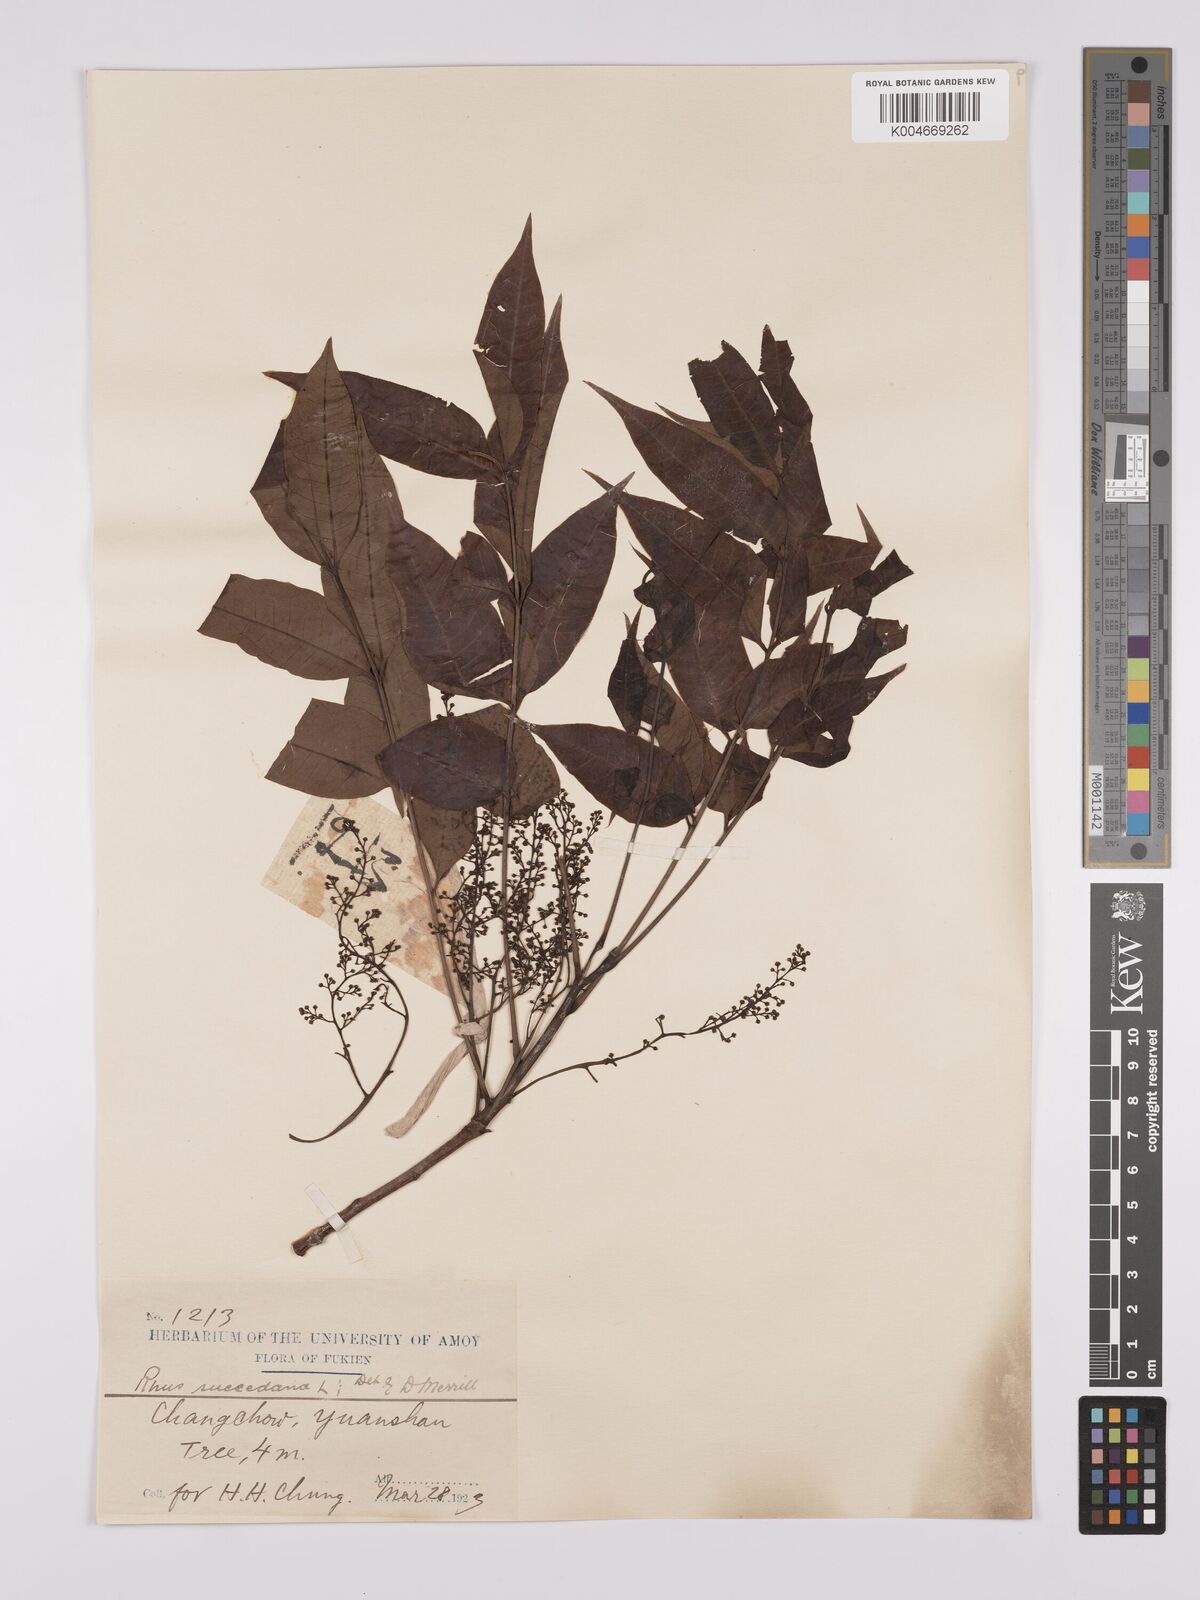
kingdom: Plantae
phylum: Tracheophyta
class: Magnoliopsida
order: Sapindales
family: Anacardiaceae
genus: Toxicodendron
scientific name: Toxicodendron succedaneum
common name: Wax tree
